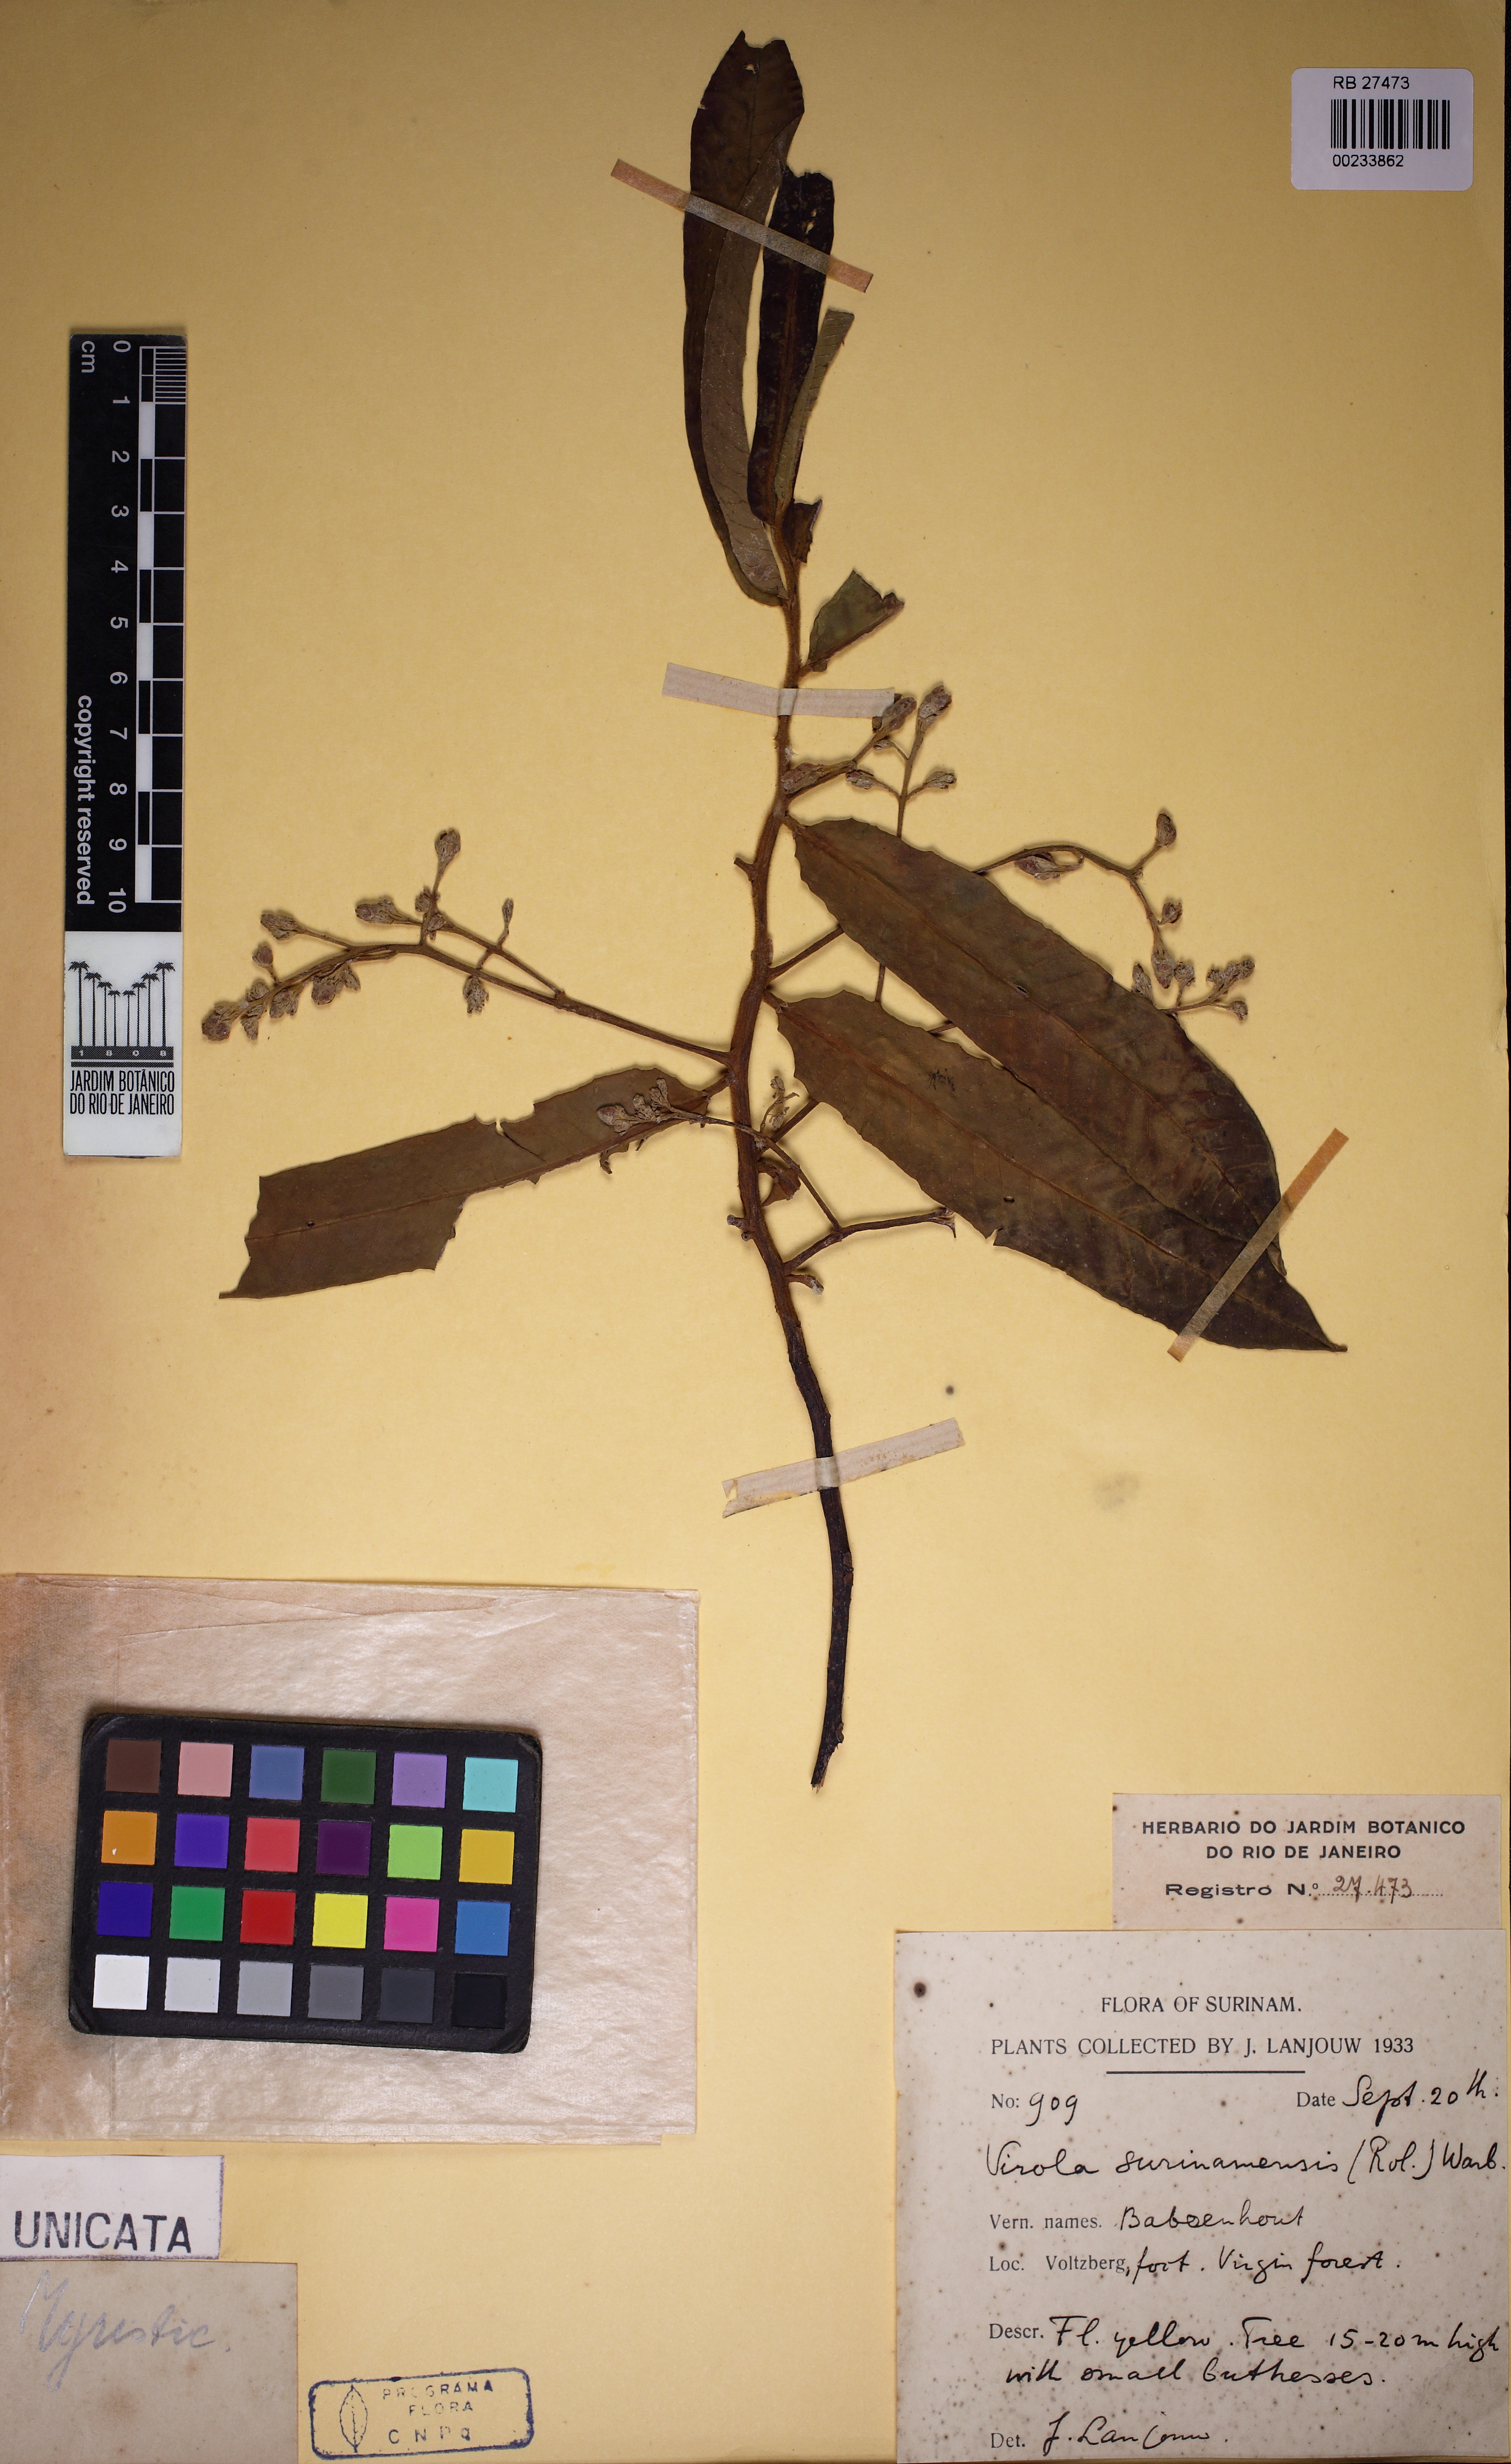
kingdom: Plantae
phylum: Tracheophyta
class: Magnoliopsida
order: Magnoliales
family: Myristicaceae
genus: Virola
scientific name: Virola surinamensis
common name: Baboonwood
